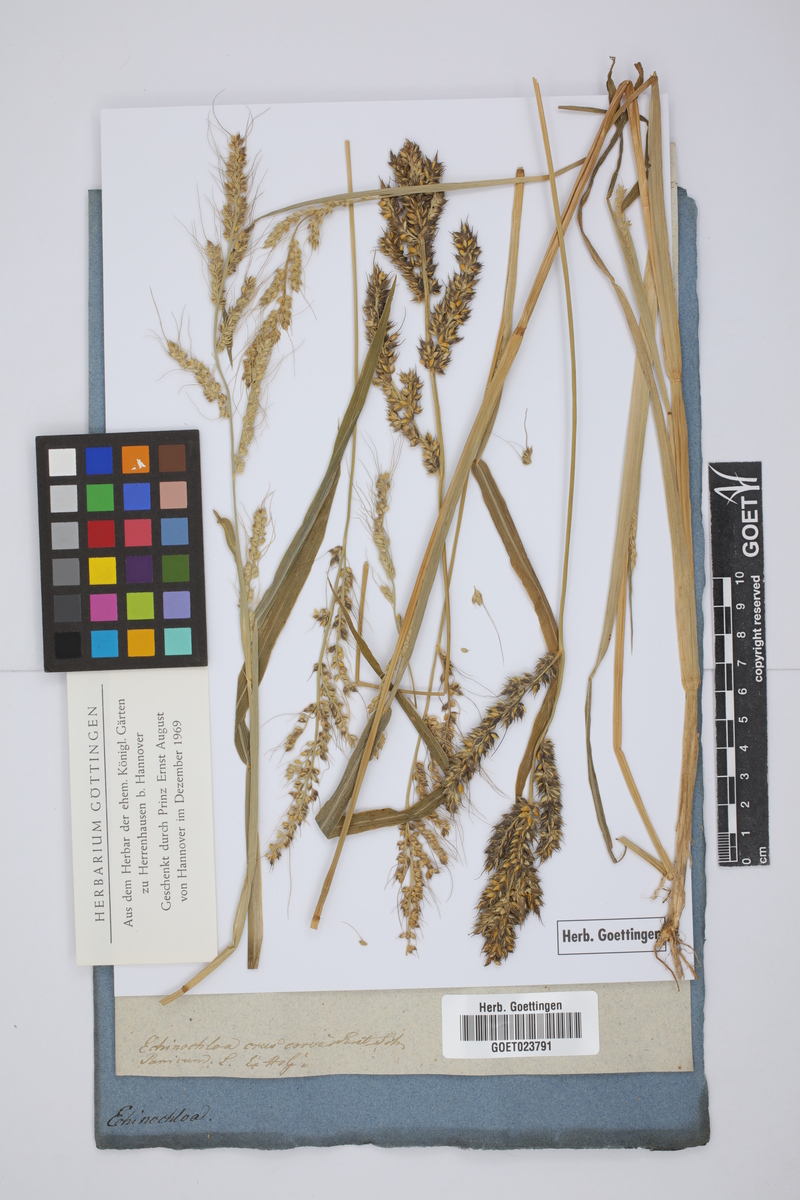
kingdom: Plantae
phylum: Tracheophyta
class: Liliopsida
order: Poales
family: Poaceae
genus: Echinochloa
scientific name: Echinochloa crus-galli
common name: Cockspur
